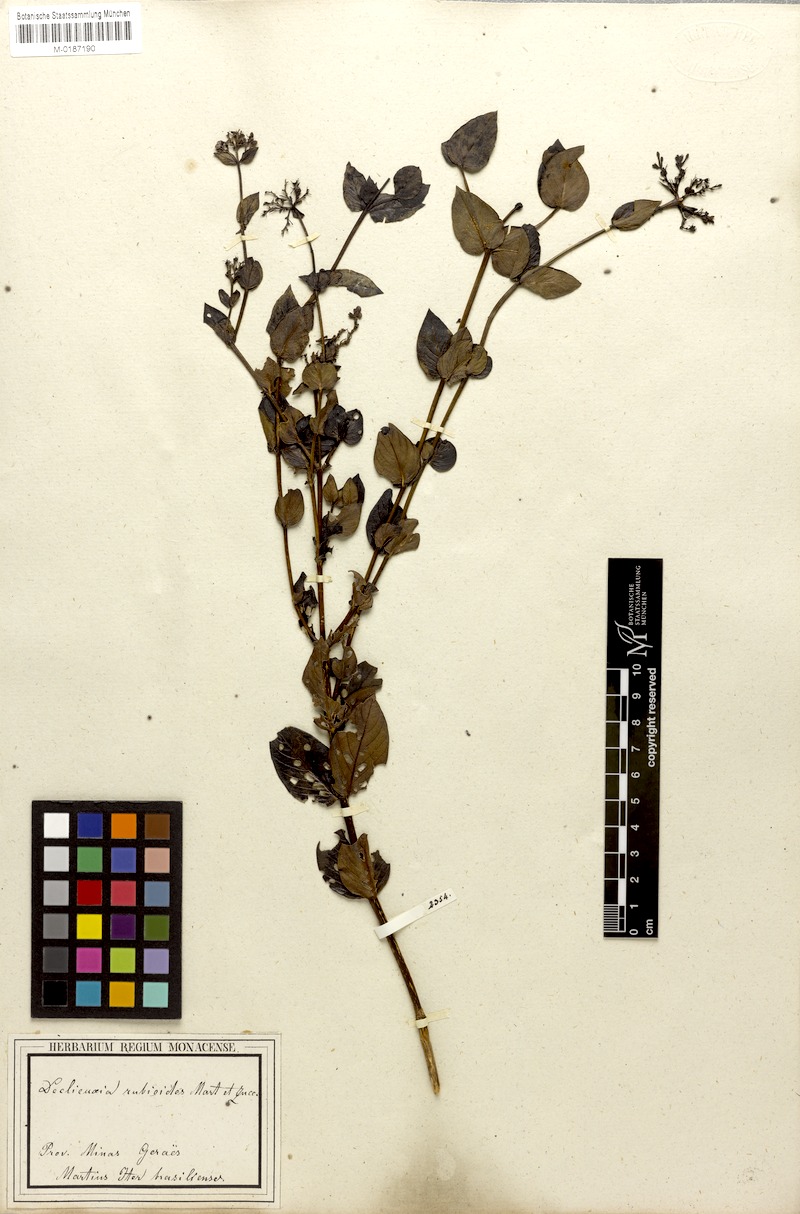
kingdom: Plantae
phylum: Tracheophyta
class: Magnoliopsida
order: Gentianales
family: Rubiaceae
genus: Declieuxia
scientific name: Declieuxia fruticosa
